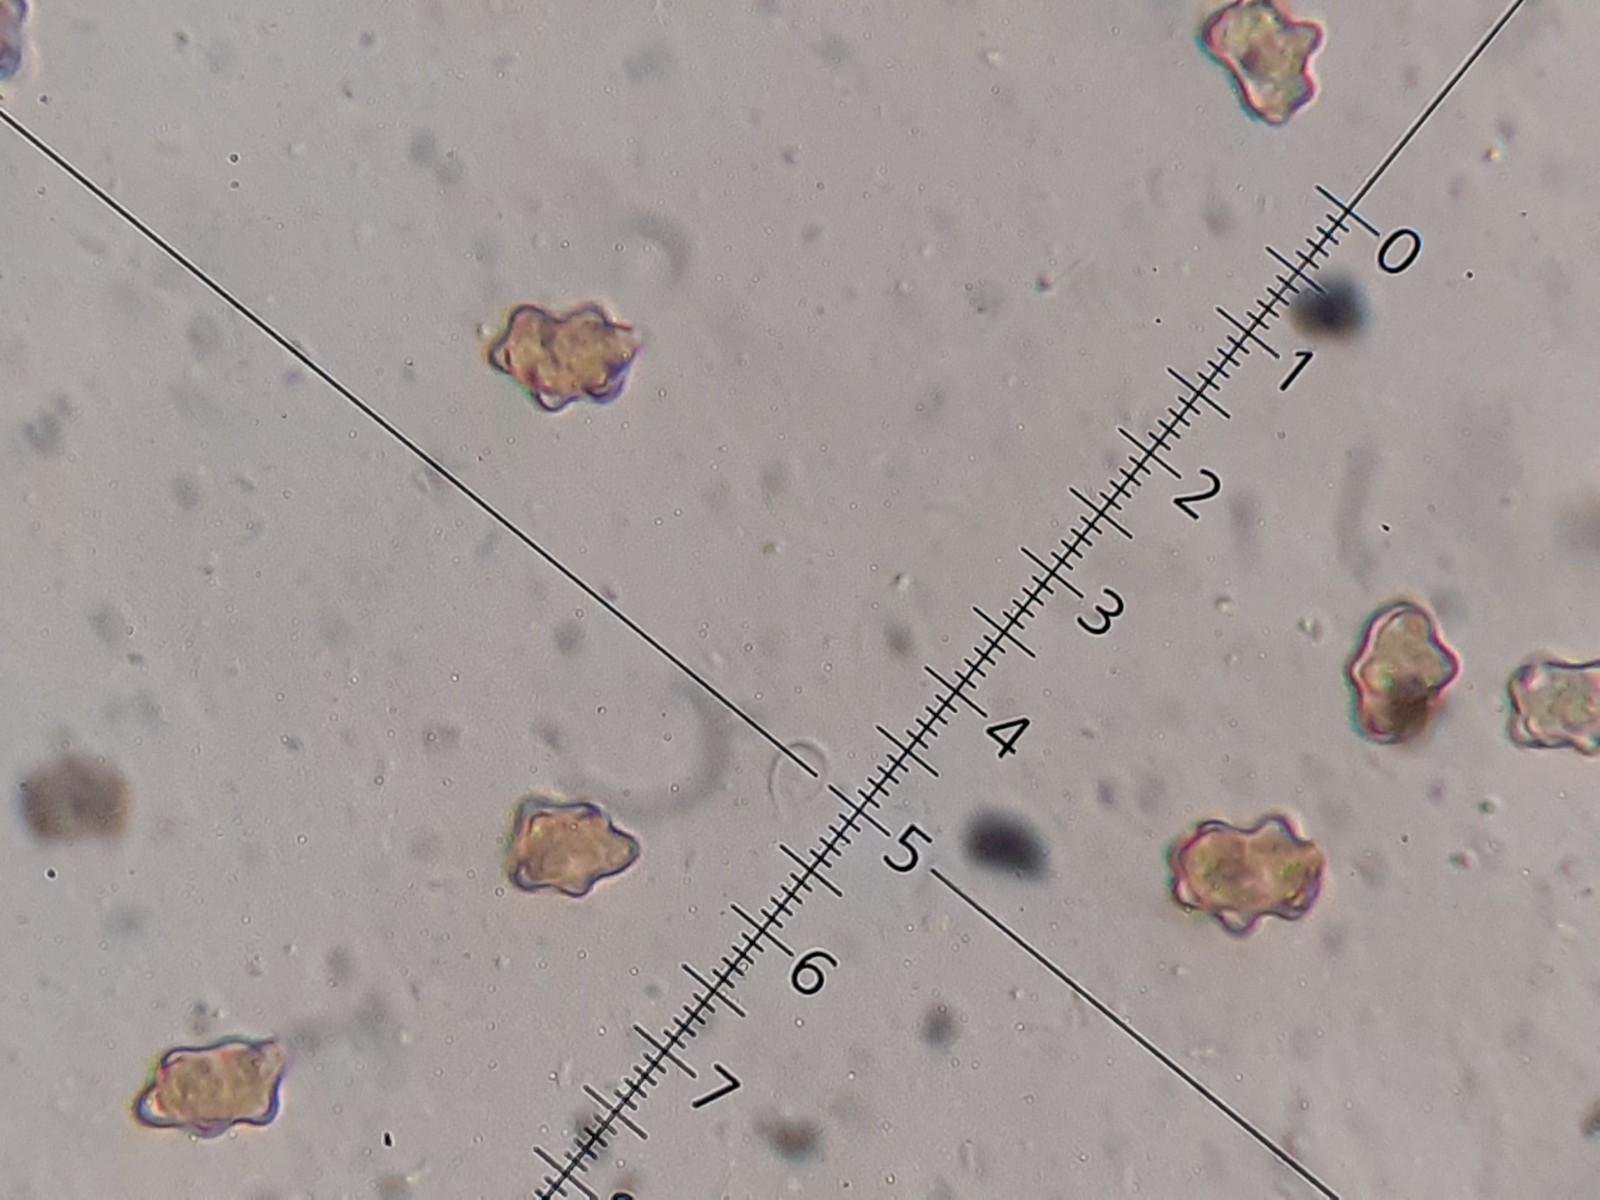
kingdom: Fungi
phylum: Basidiomycota
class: Agaricomycetes
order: Agaricales
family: Inocybaceae
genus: Inocybe
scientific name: Inocybe decemgibbosa
